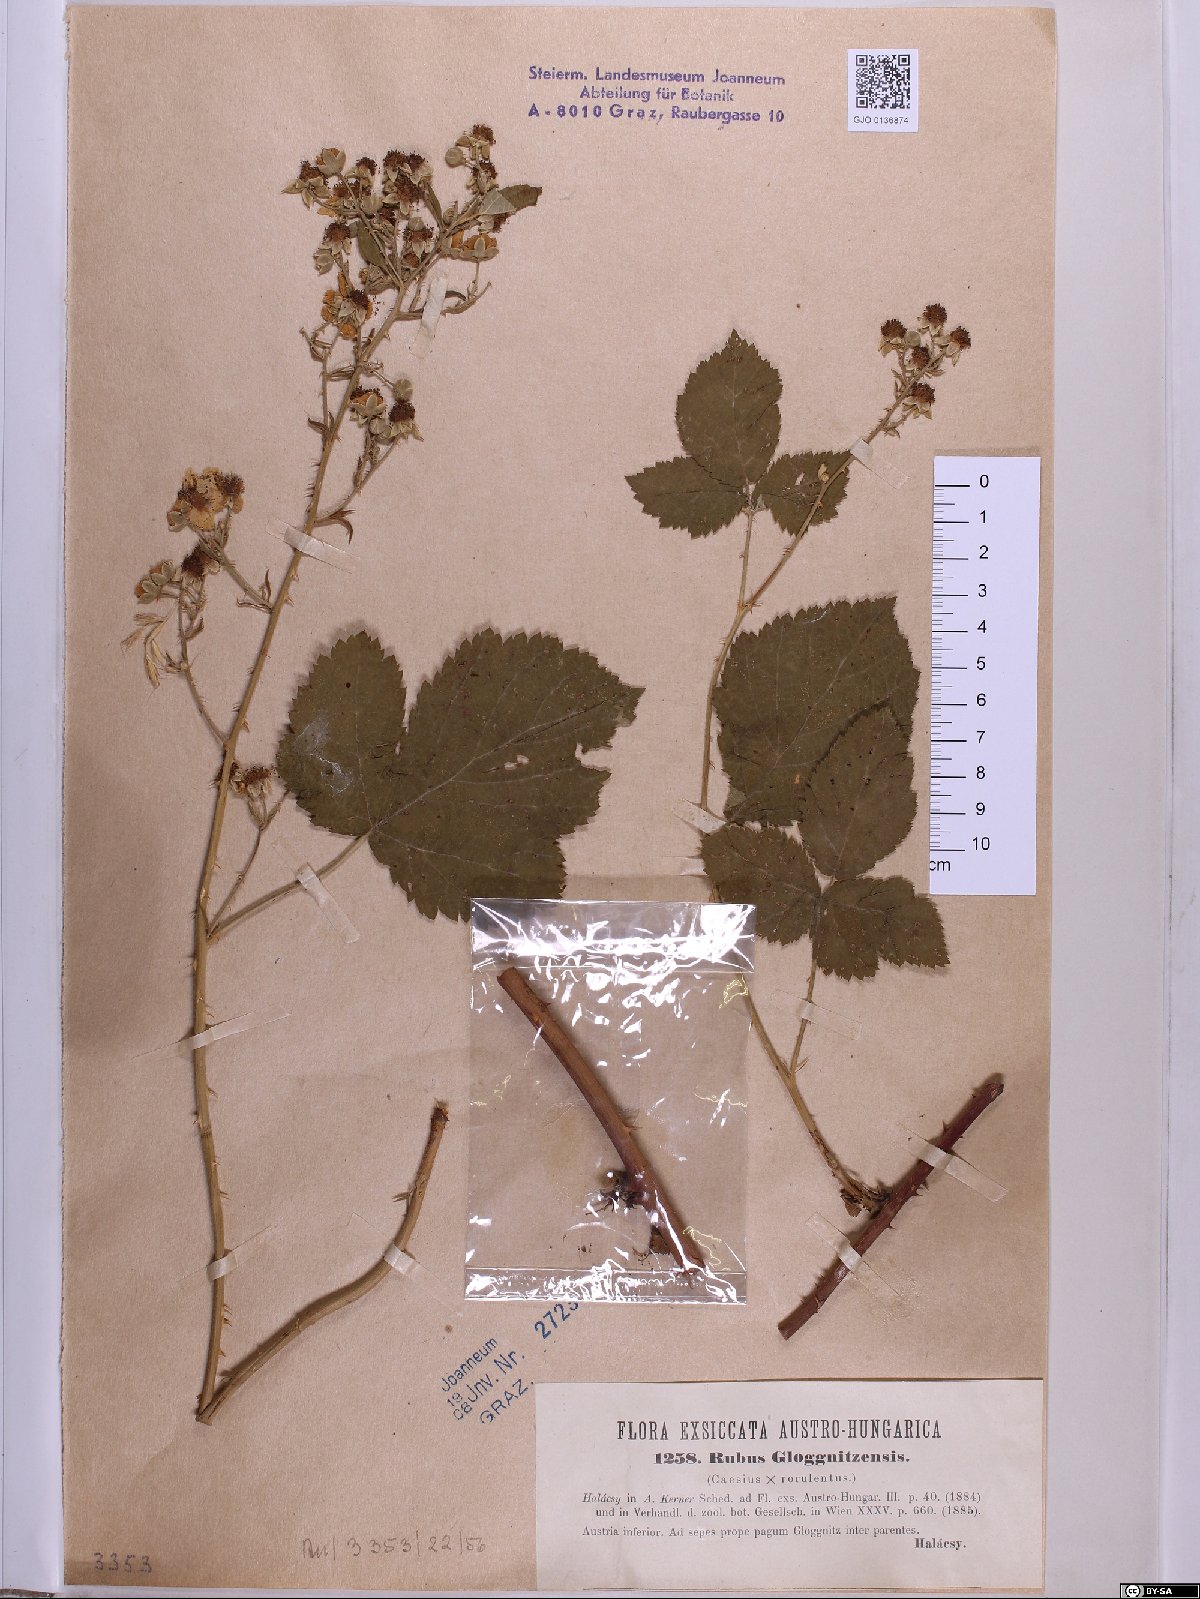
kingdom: Plantae
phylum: Tracheophyta
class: Magnoliopsida
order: Rosales
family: Rosaceae
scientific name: Rosaceae
